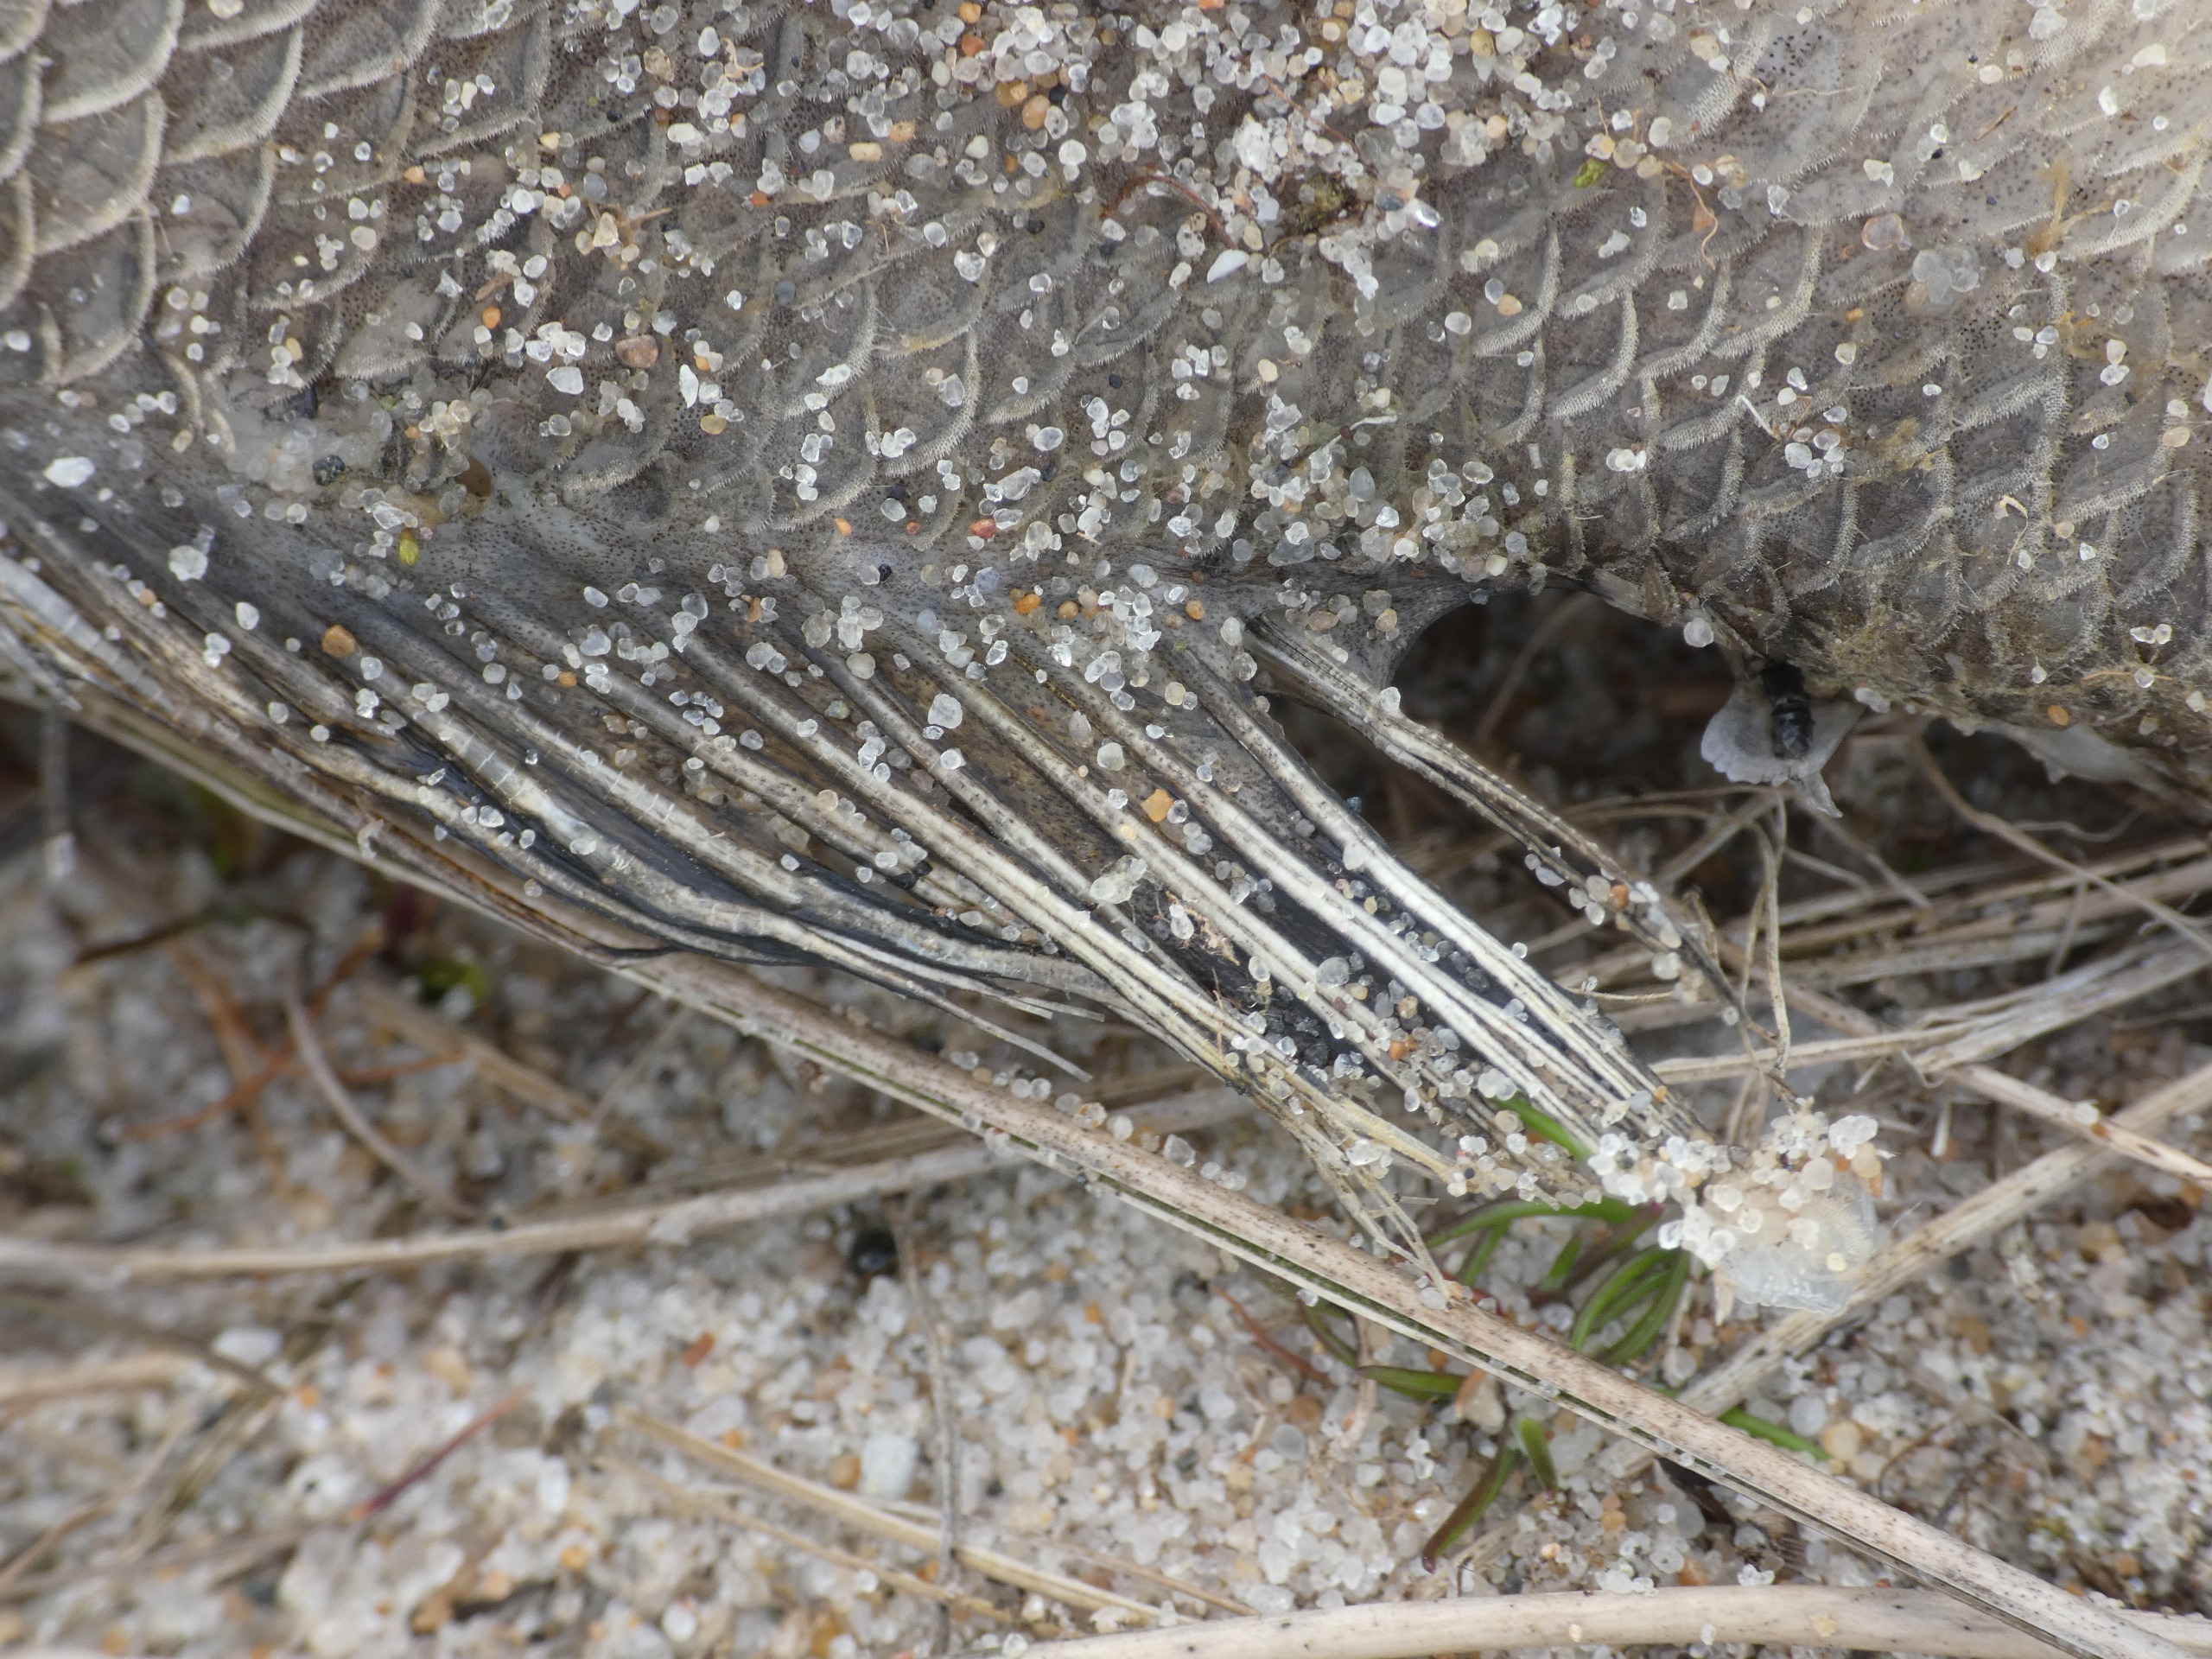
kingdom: Animalia
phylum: Chordata
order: Perciformes
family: Percidae
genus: Perca
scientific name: Perca fluviatilis
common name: Aborre
